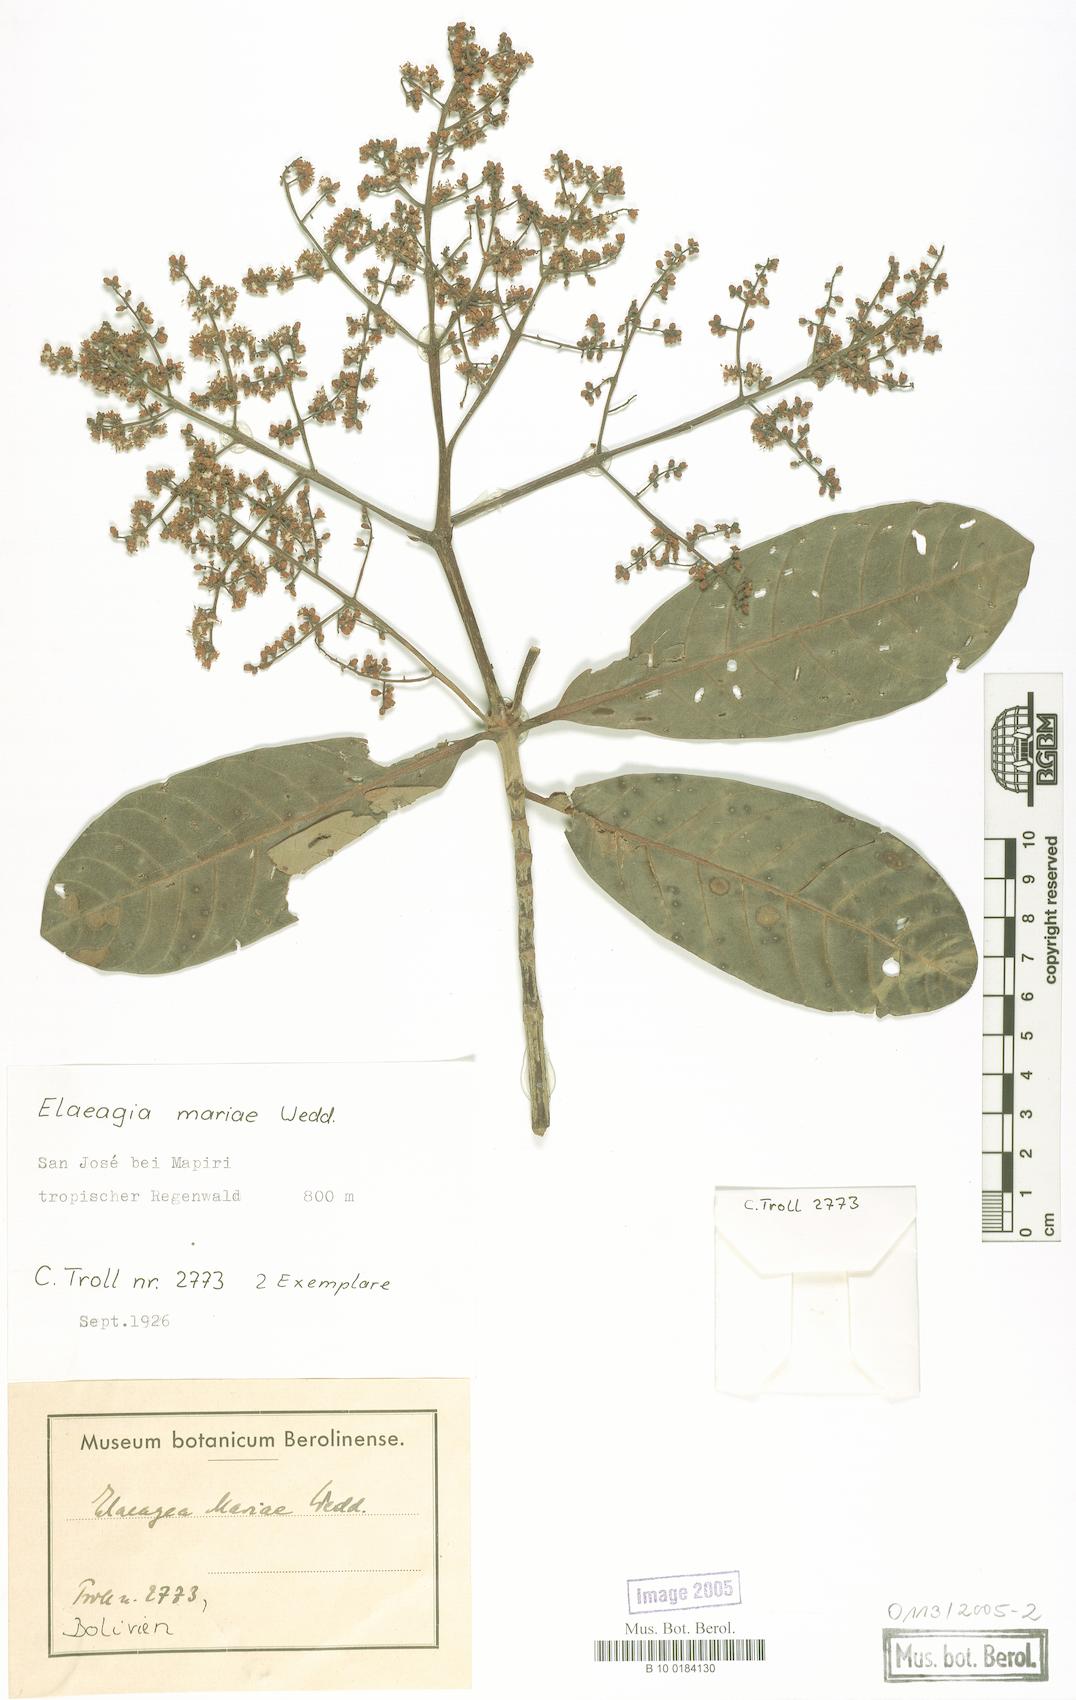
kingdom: Plantae
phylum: Tracheophyta
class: Magnoliopsida
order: Gentianales
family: Rubiaceae
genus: Elaeagia
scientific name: Elaeagia mariae
